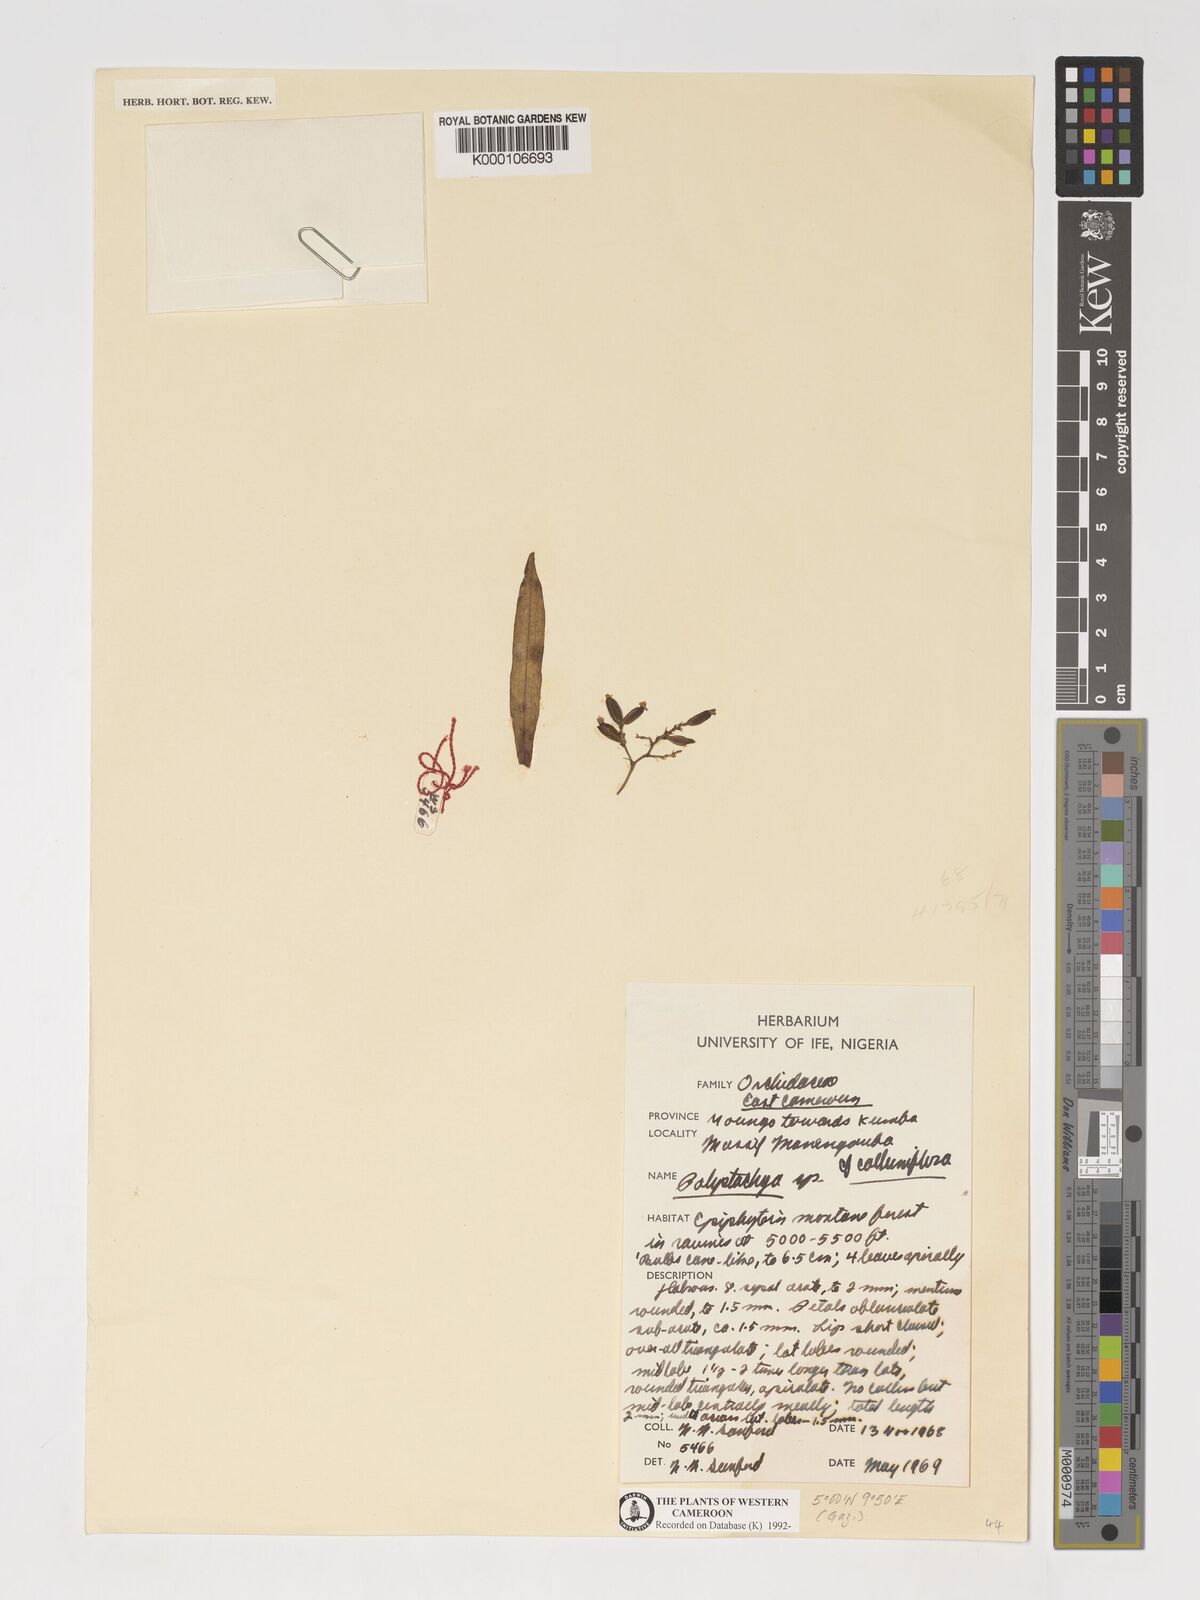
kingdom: Plantae
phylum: Tracheophyta
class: Liliopsida
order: Asparagales
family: Orchidaceae
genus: Polystachya
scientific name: Polystachya calluniflora
